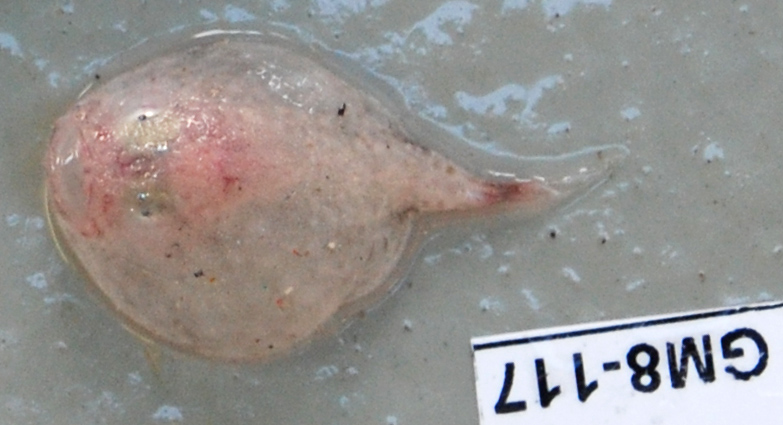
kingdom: Animalia
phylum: Chordata
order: Lophiiformes
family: Chaunacidae
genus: Chaunax
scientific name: Chaunax pictus
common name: Pink frogmouth
